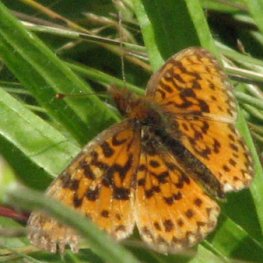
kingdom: Animalia
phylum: Arthropoda
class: Insecta
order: Lepidoptera
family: Nymphalidae
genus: Boloria
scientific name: Boloria selene
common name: Silver-bordered Fritillary
